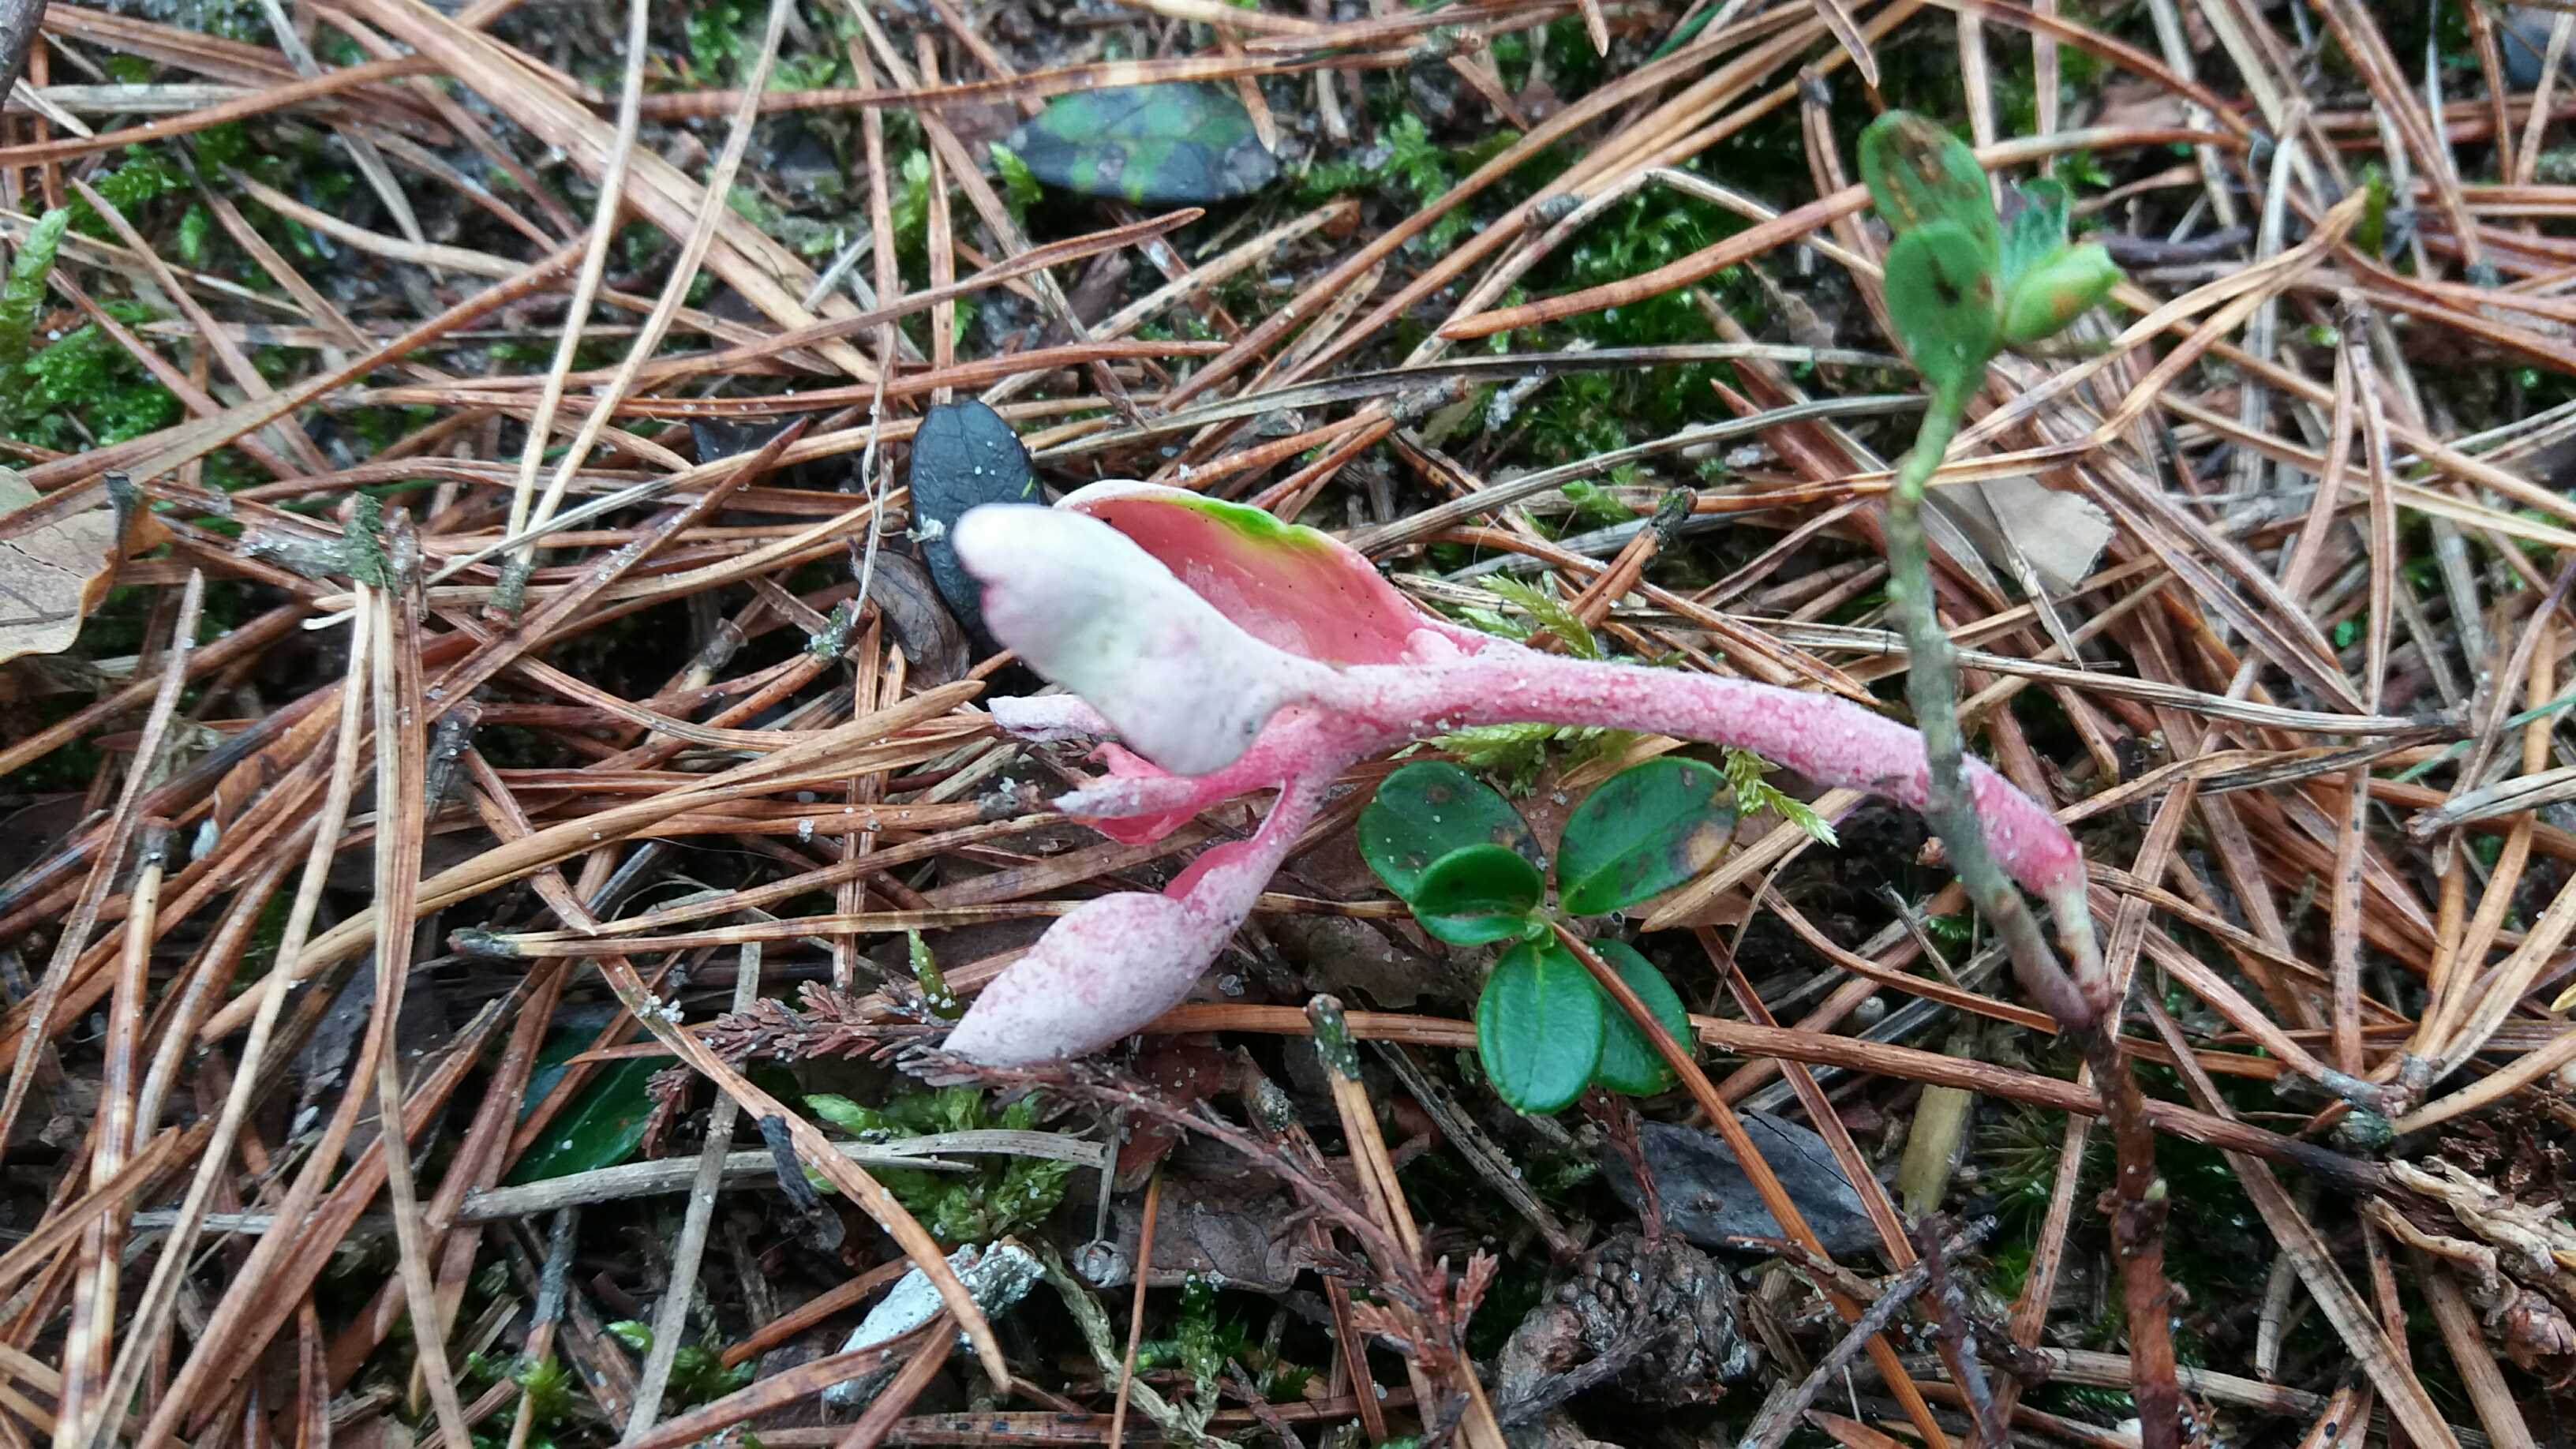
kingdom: Fungi
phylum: Basidiomycota
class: Exobasidiomycetes
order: Exobasidiales
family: Exobasidiaceae
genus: Exobasidium
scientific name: Exobasidium vaccinii
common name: tyttebærblad-bøllesvamp
